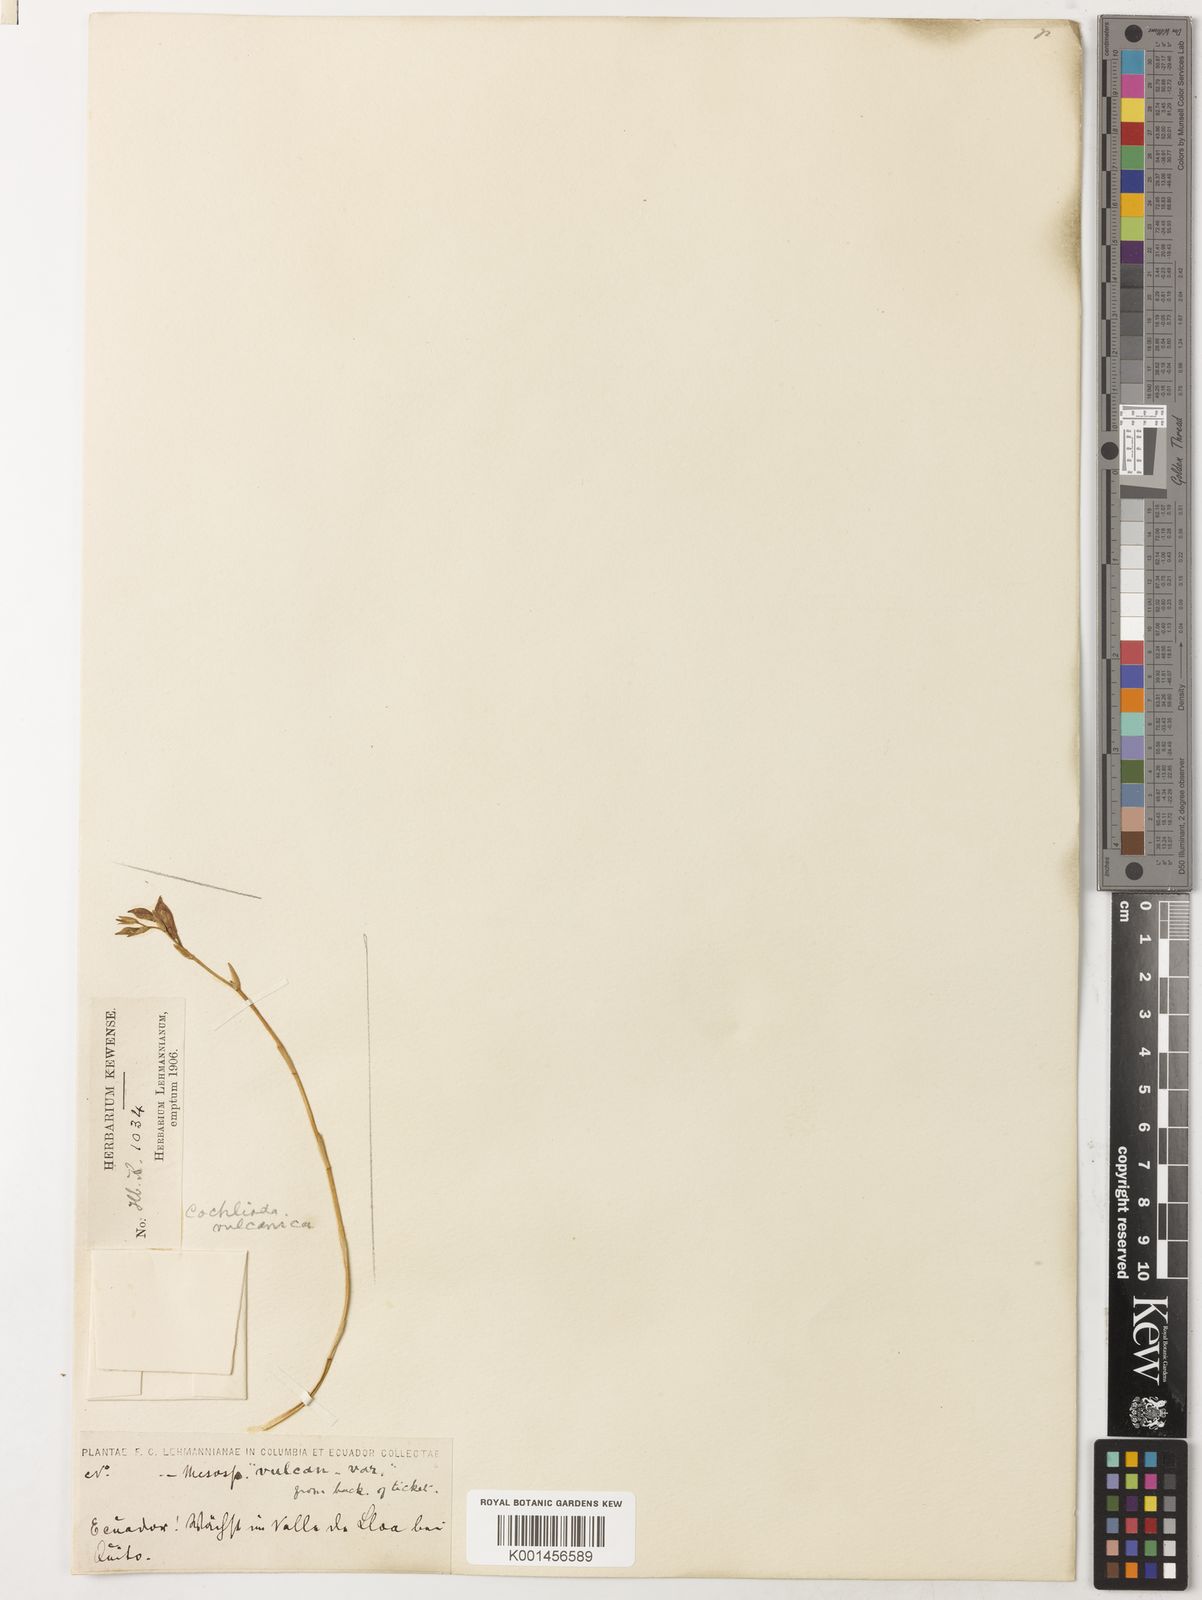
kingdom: Plantae
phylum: Tracheophyta
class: Liliopsida
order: Asparagales
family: Orchidaceae
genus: Oncidium
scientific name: Oncidium vulcanicum
